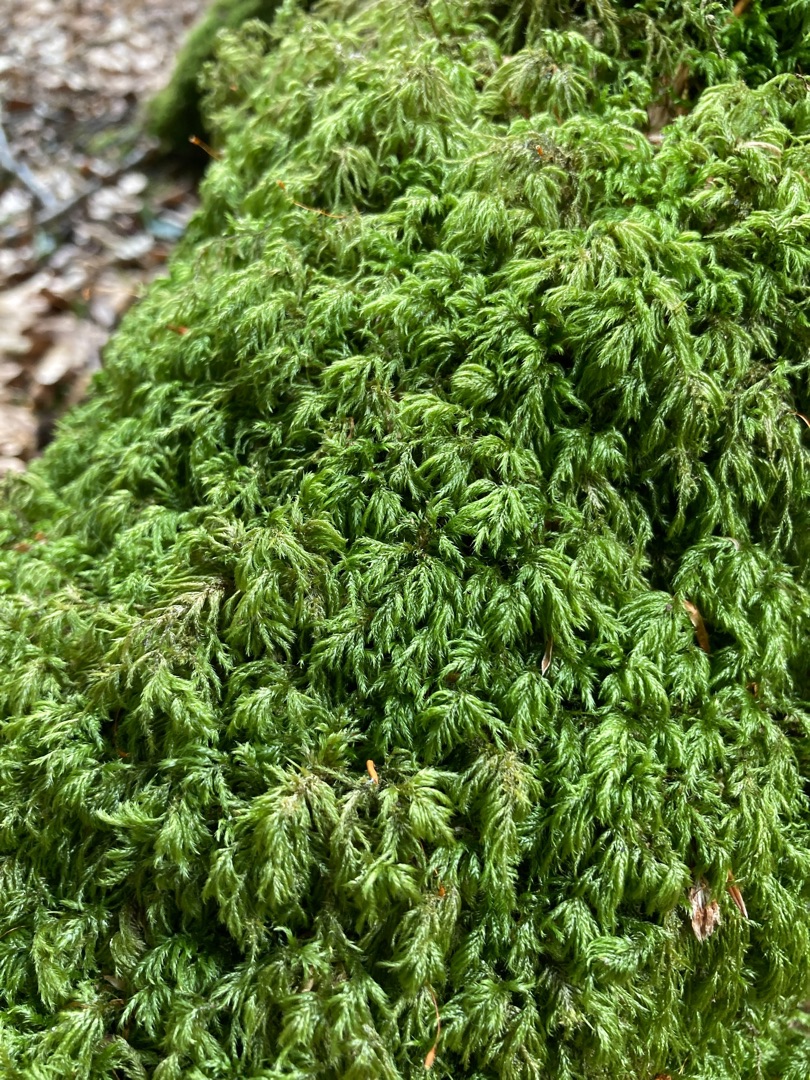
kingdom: Plantae
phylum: Bryophyta
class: Bryopsida
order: Hypnales
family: Lembophyllaceae
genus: Pseudisothecium
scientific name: Pseudisothecium myosuroides
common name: Slank stammemos
